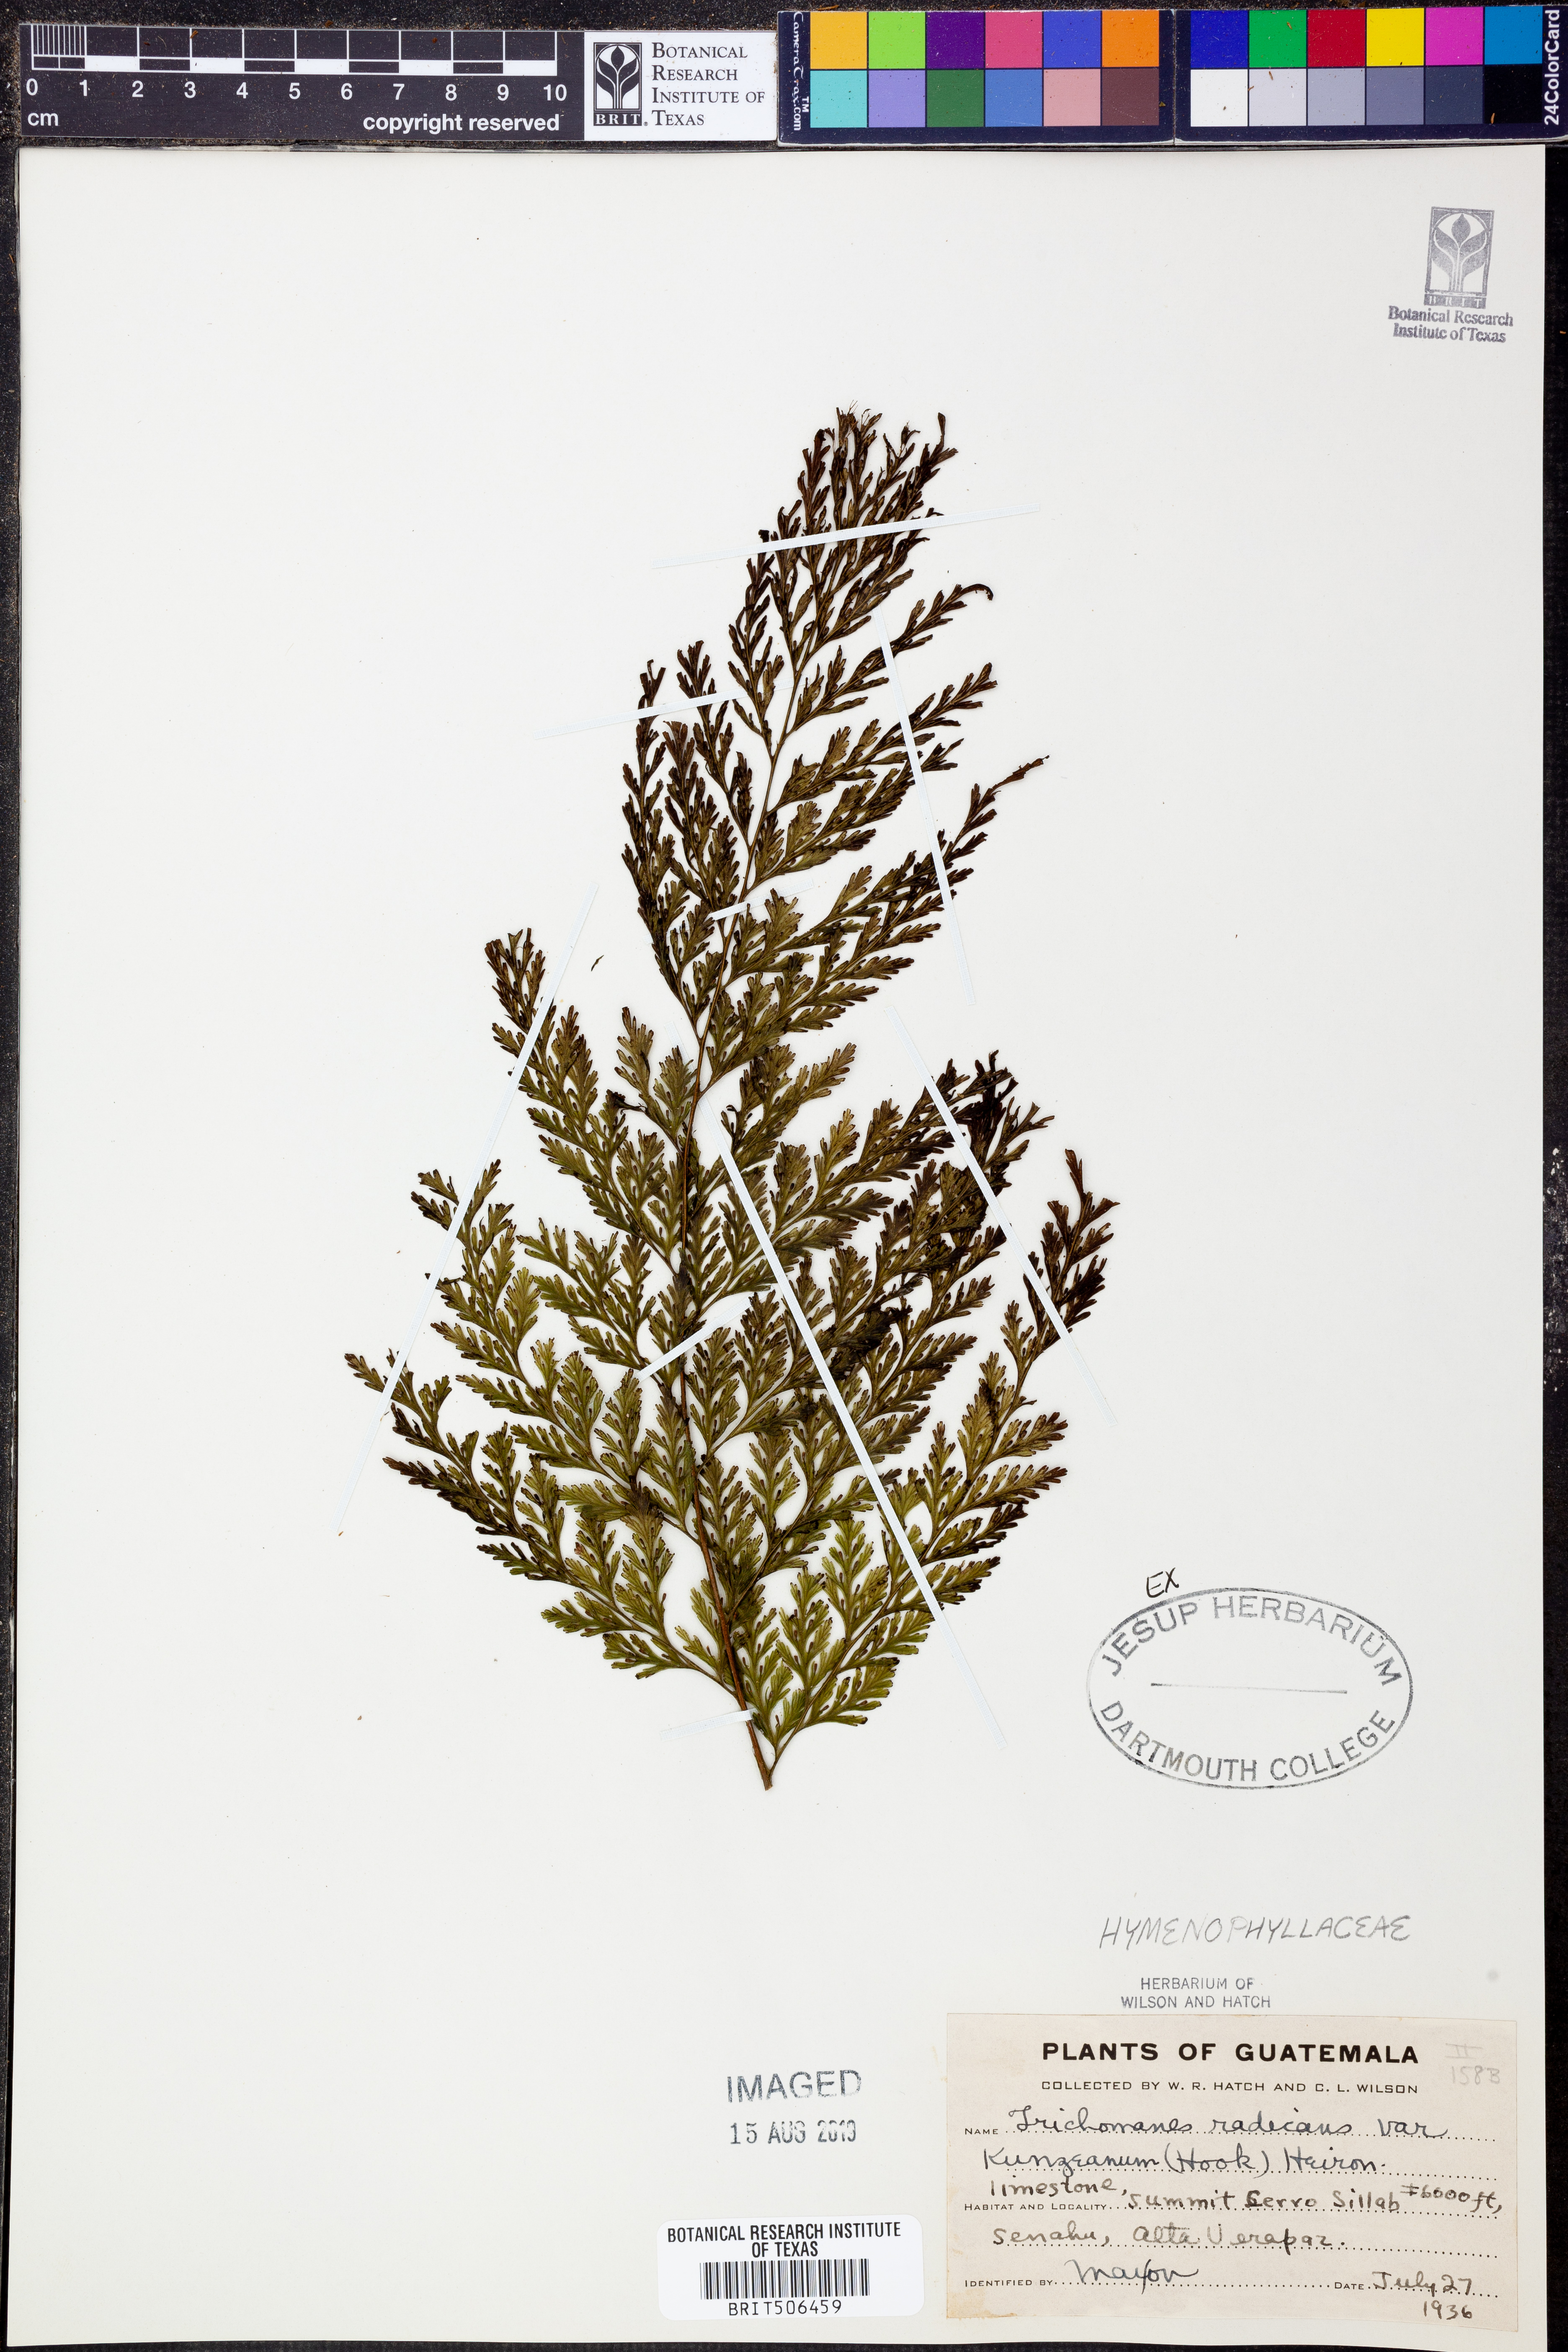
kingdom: Plantae
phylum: Tracheophyta
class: Polypodiopsida
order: Hymenophyllales
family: Hymenophyllaceae
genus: Vandenboschia
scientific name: Vandenboschia radicans
